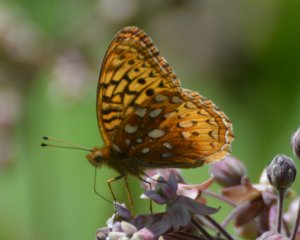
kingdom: Animalia
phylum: Arthropoda
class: Insecta
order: Lepidoptera
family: Nymphalidae
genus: Speyeria
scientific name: Speyeria cybele
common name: Great Spangled Fritillary
